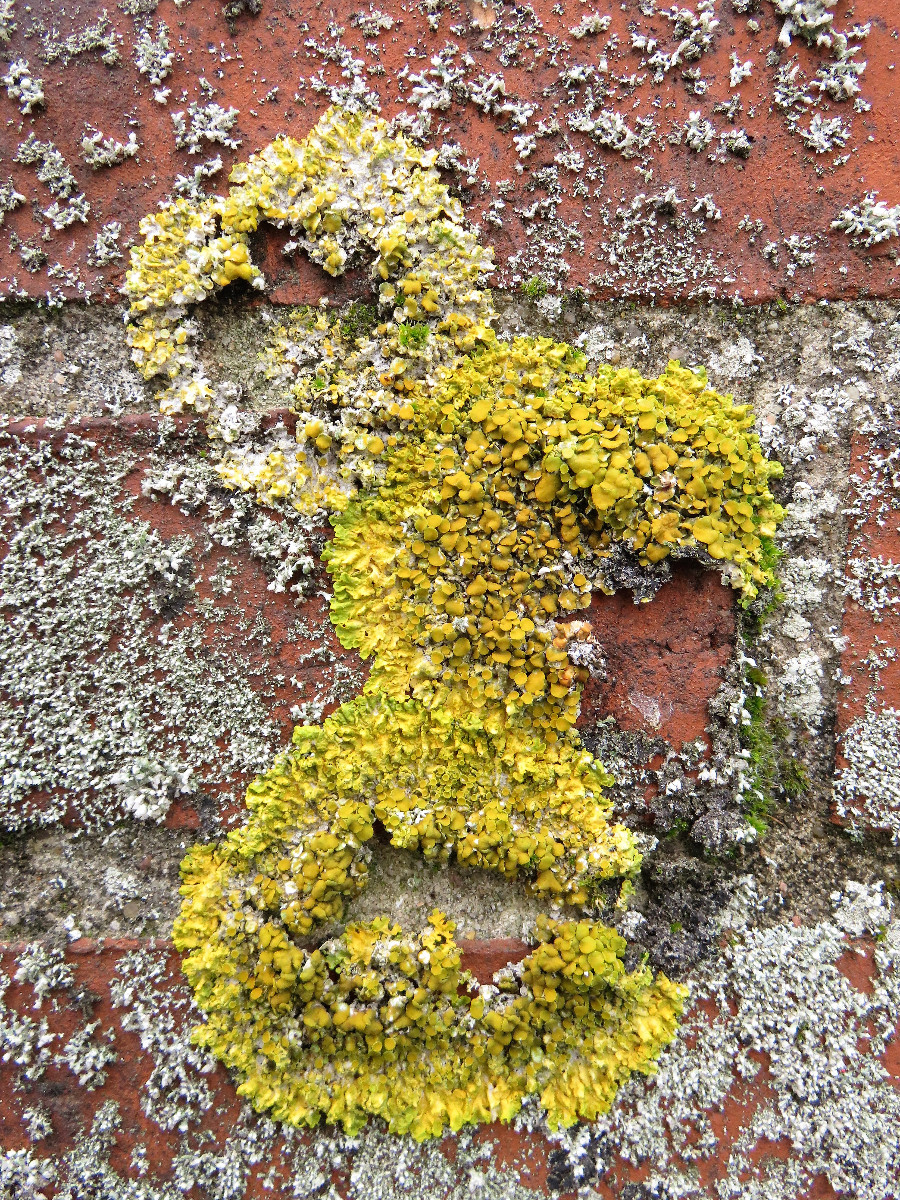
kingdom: Fungi
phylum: Ascomycota
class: Lecanoromycetes
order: Teloschistales
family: Teloschistaceae
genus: Xanthoria
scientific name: Xanthoria parietina
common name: almindelig væggelav
